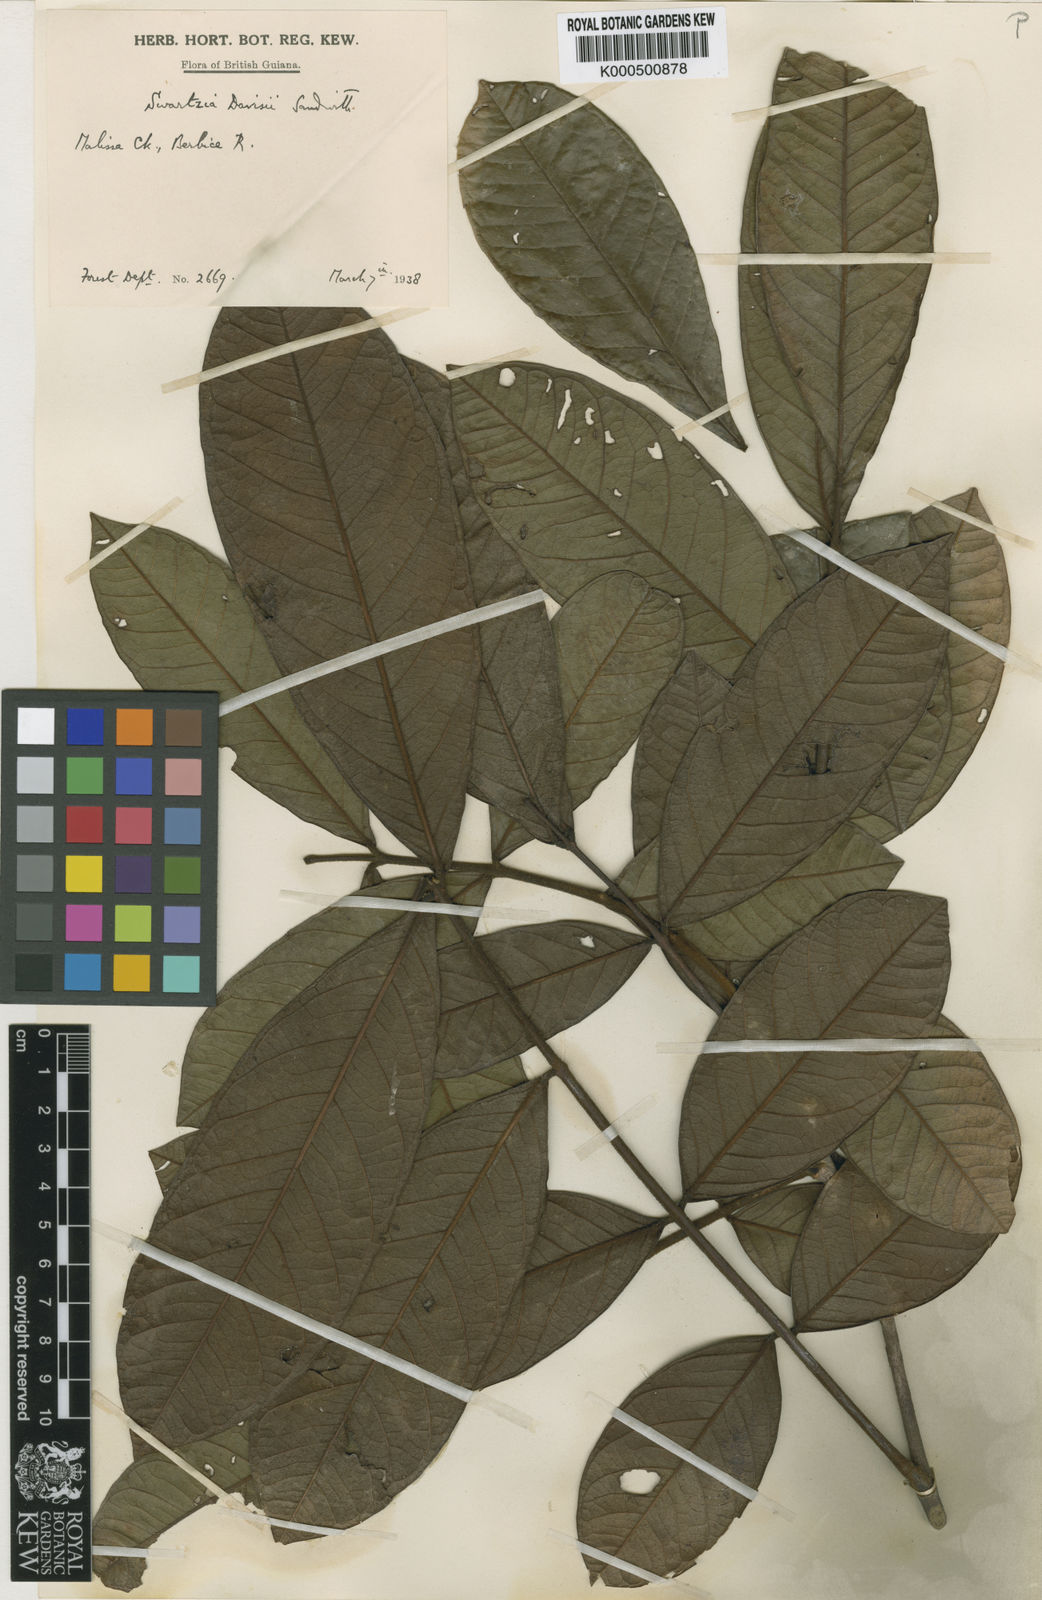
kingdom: Plantae
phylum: Tracheophyta
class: Magnoliopsida
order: Fabales
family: Fabaceae
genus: Swartzia
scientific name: Swartzia davisii
